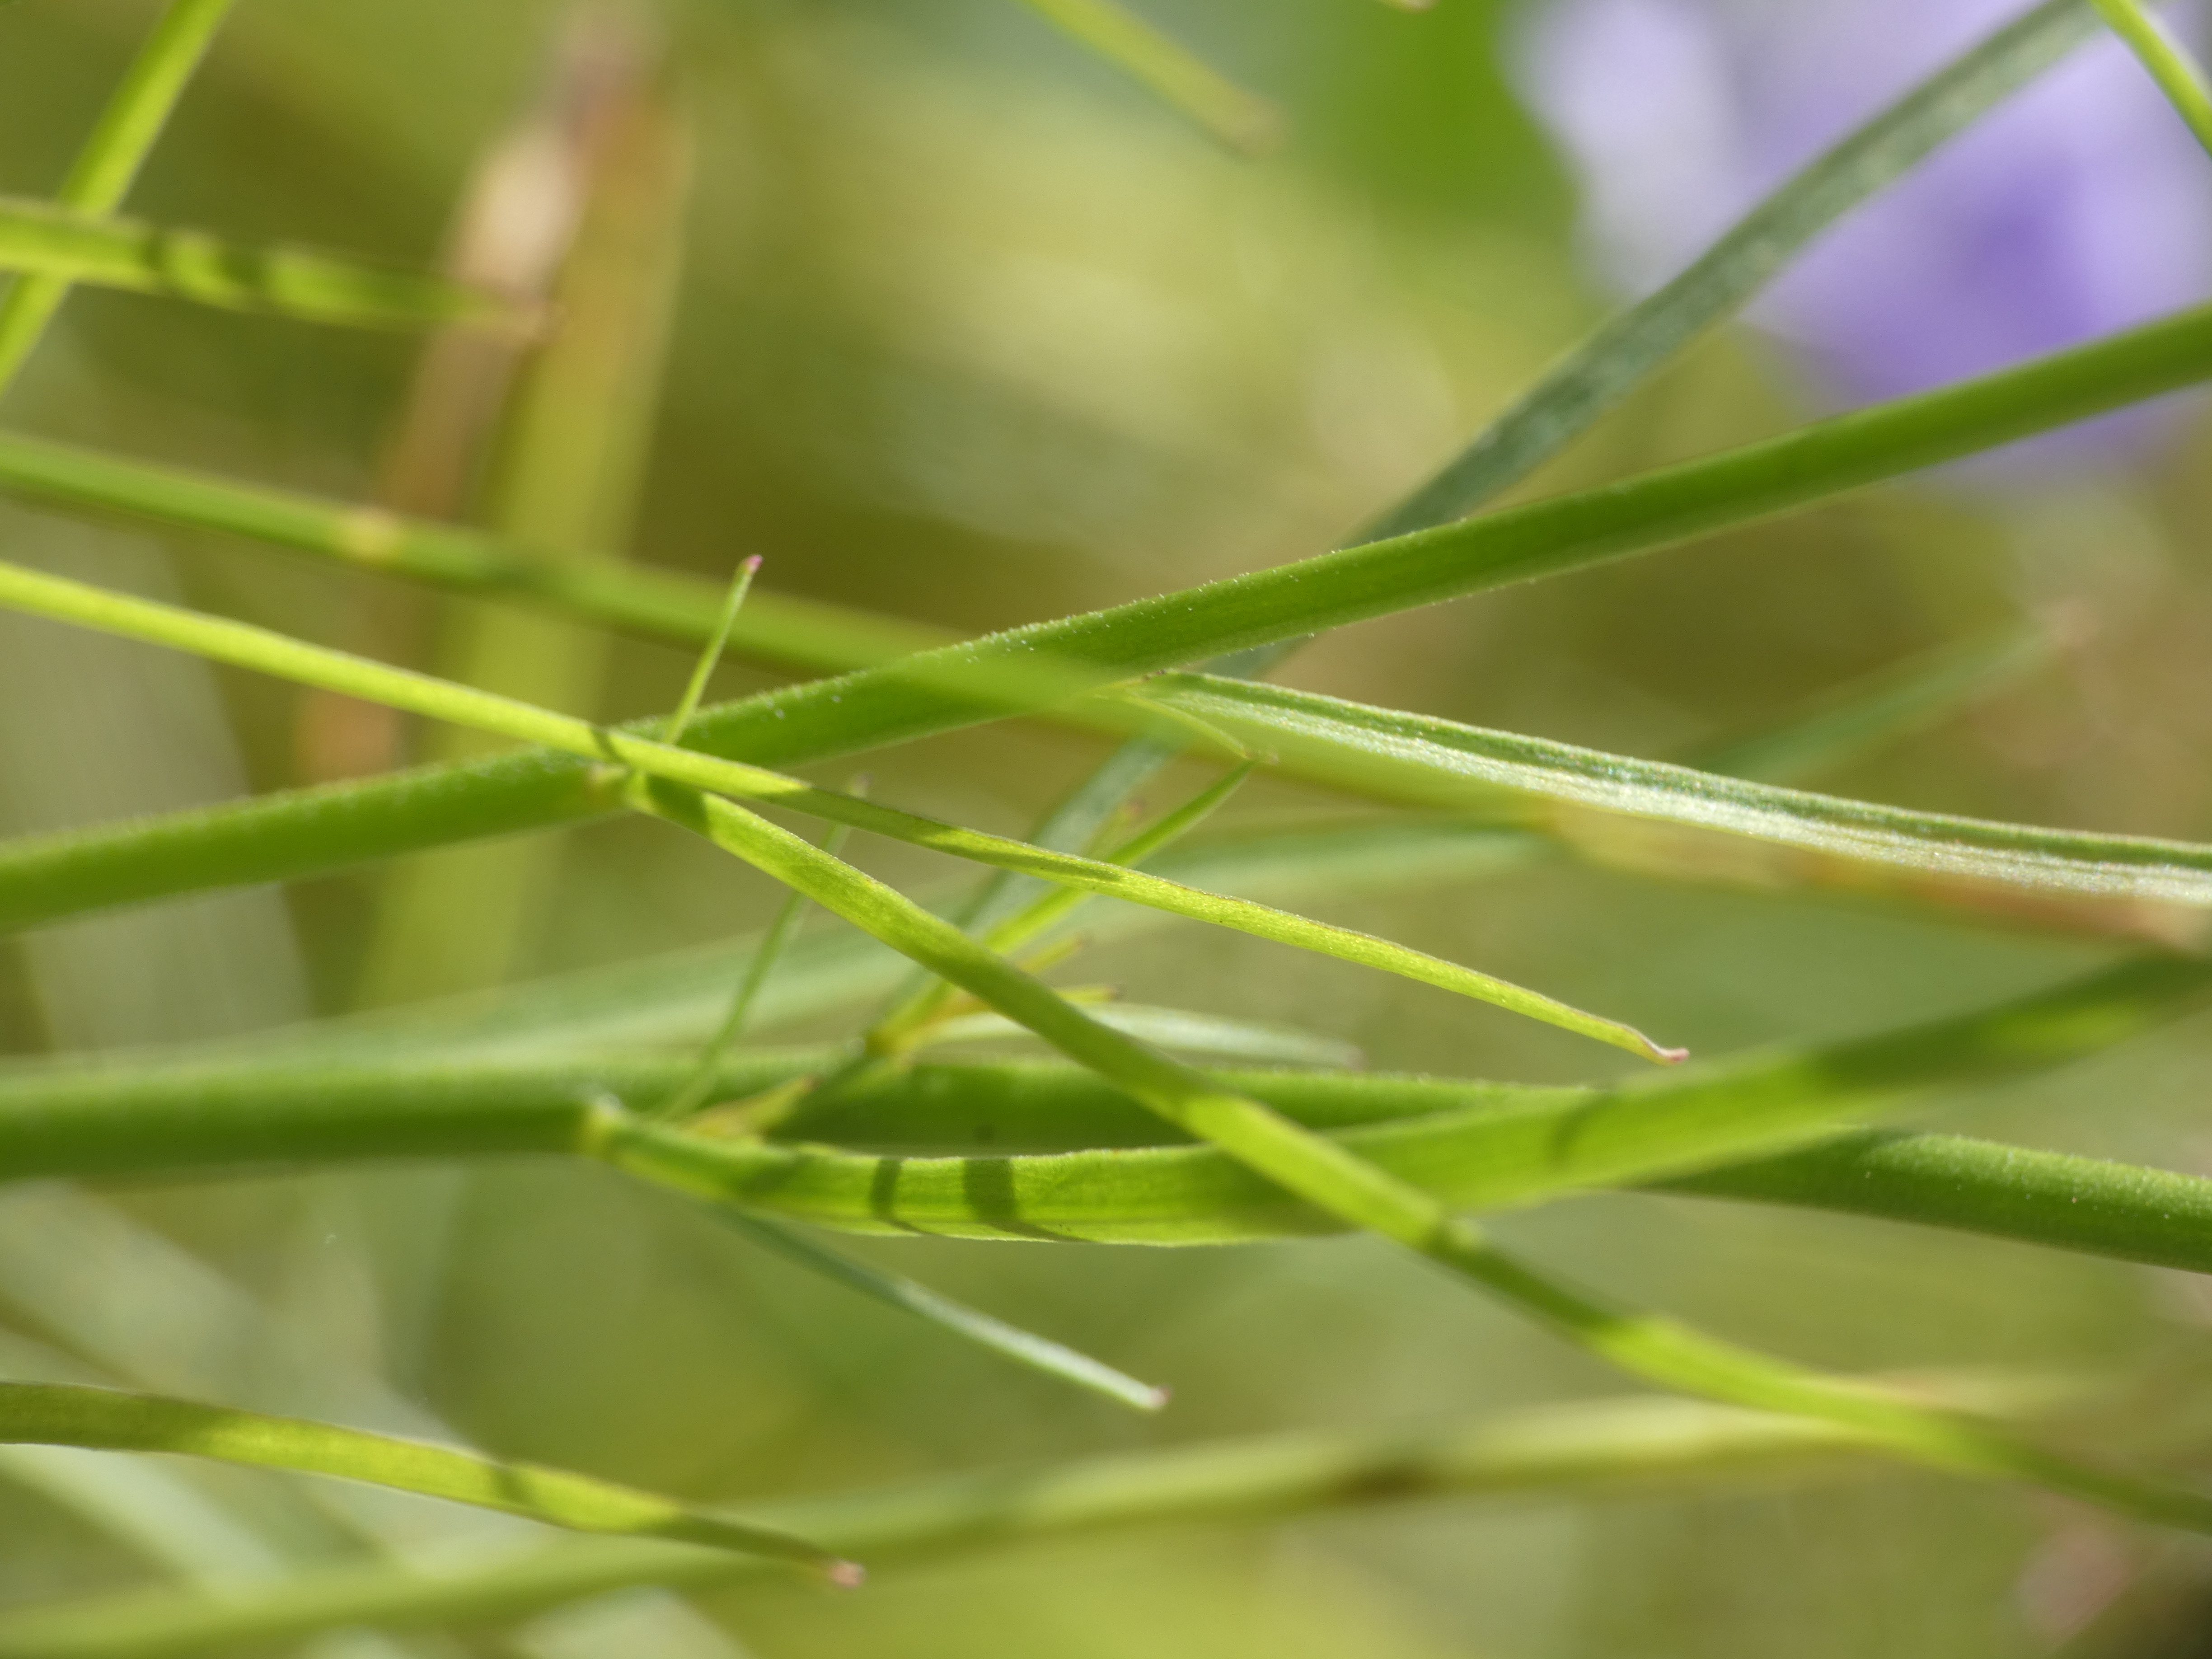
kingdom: Plantae
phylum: Tracheophyta
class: Magnoliopsida
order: Asterales
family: Campanulaceae
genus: Campanula
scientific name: Campanula rotundifolia
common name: Liden klokke
